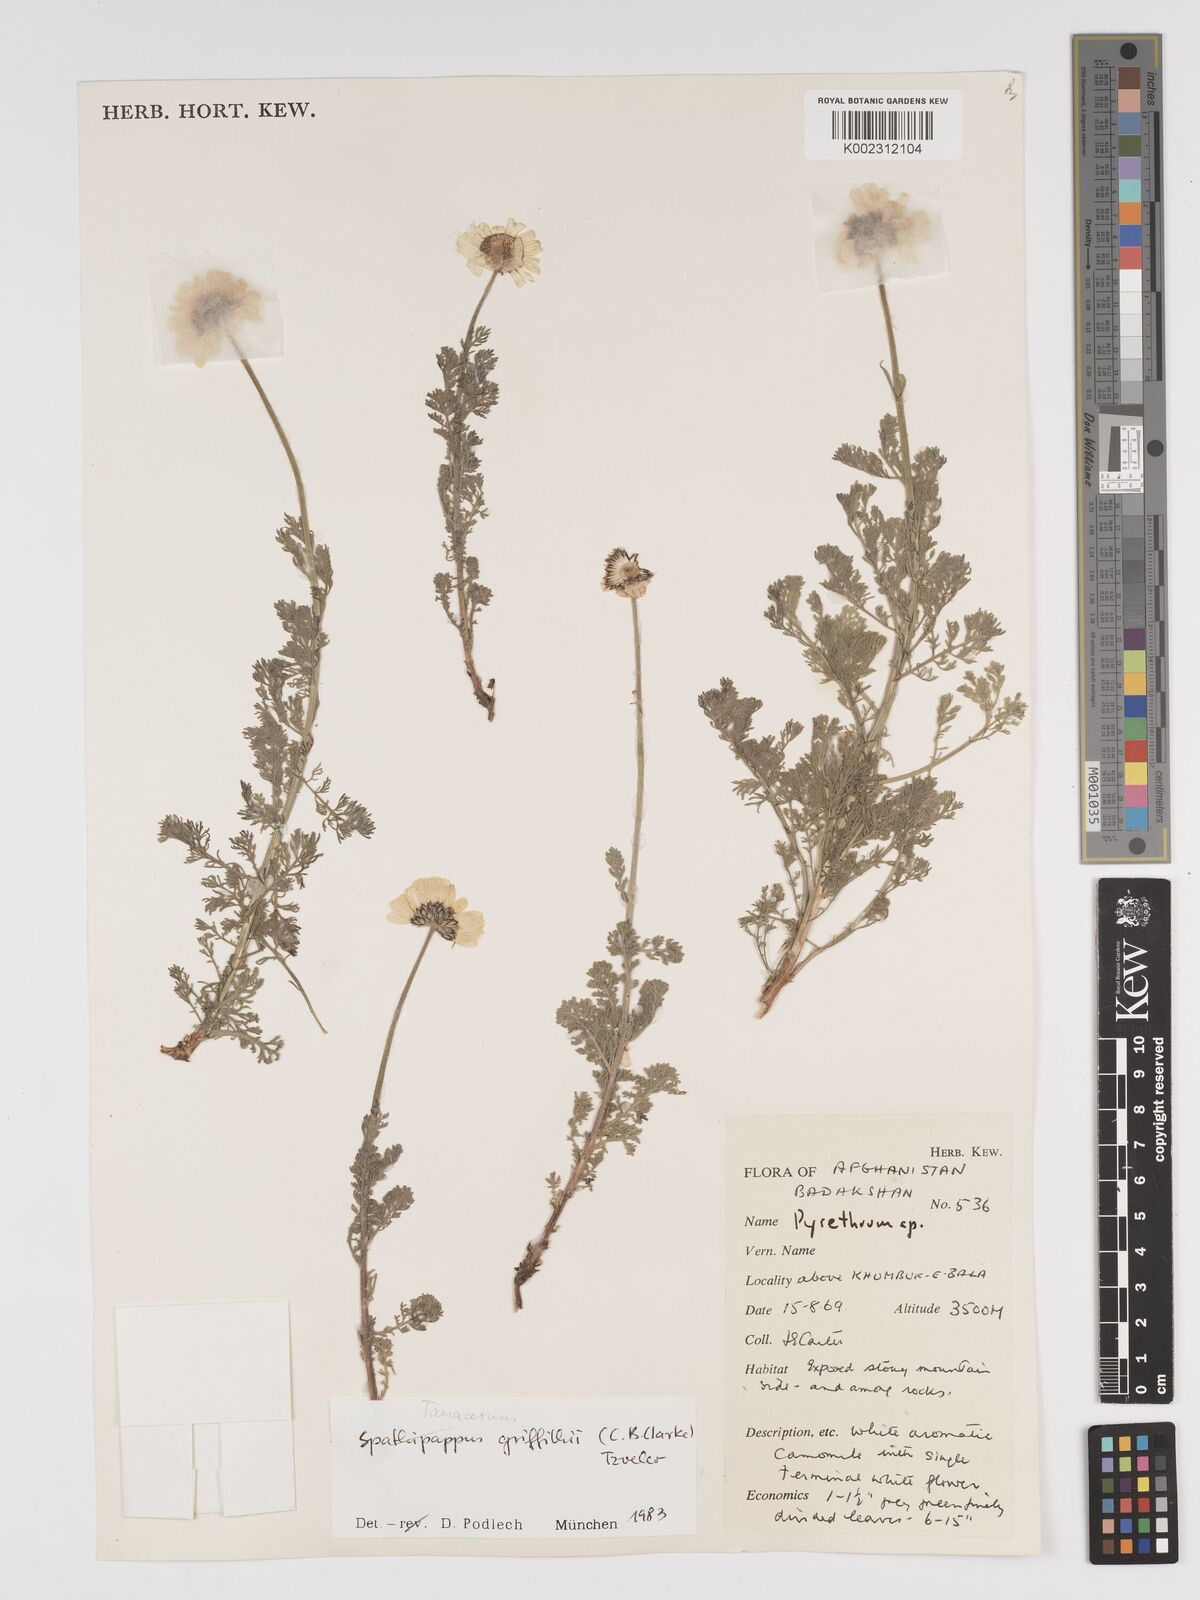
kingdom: Plantae
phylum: Tracheophyta
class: Magnoliopsida
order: Asterales
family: Asteraceae
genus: Tanacetum
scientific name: Tanacetum griffithii
